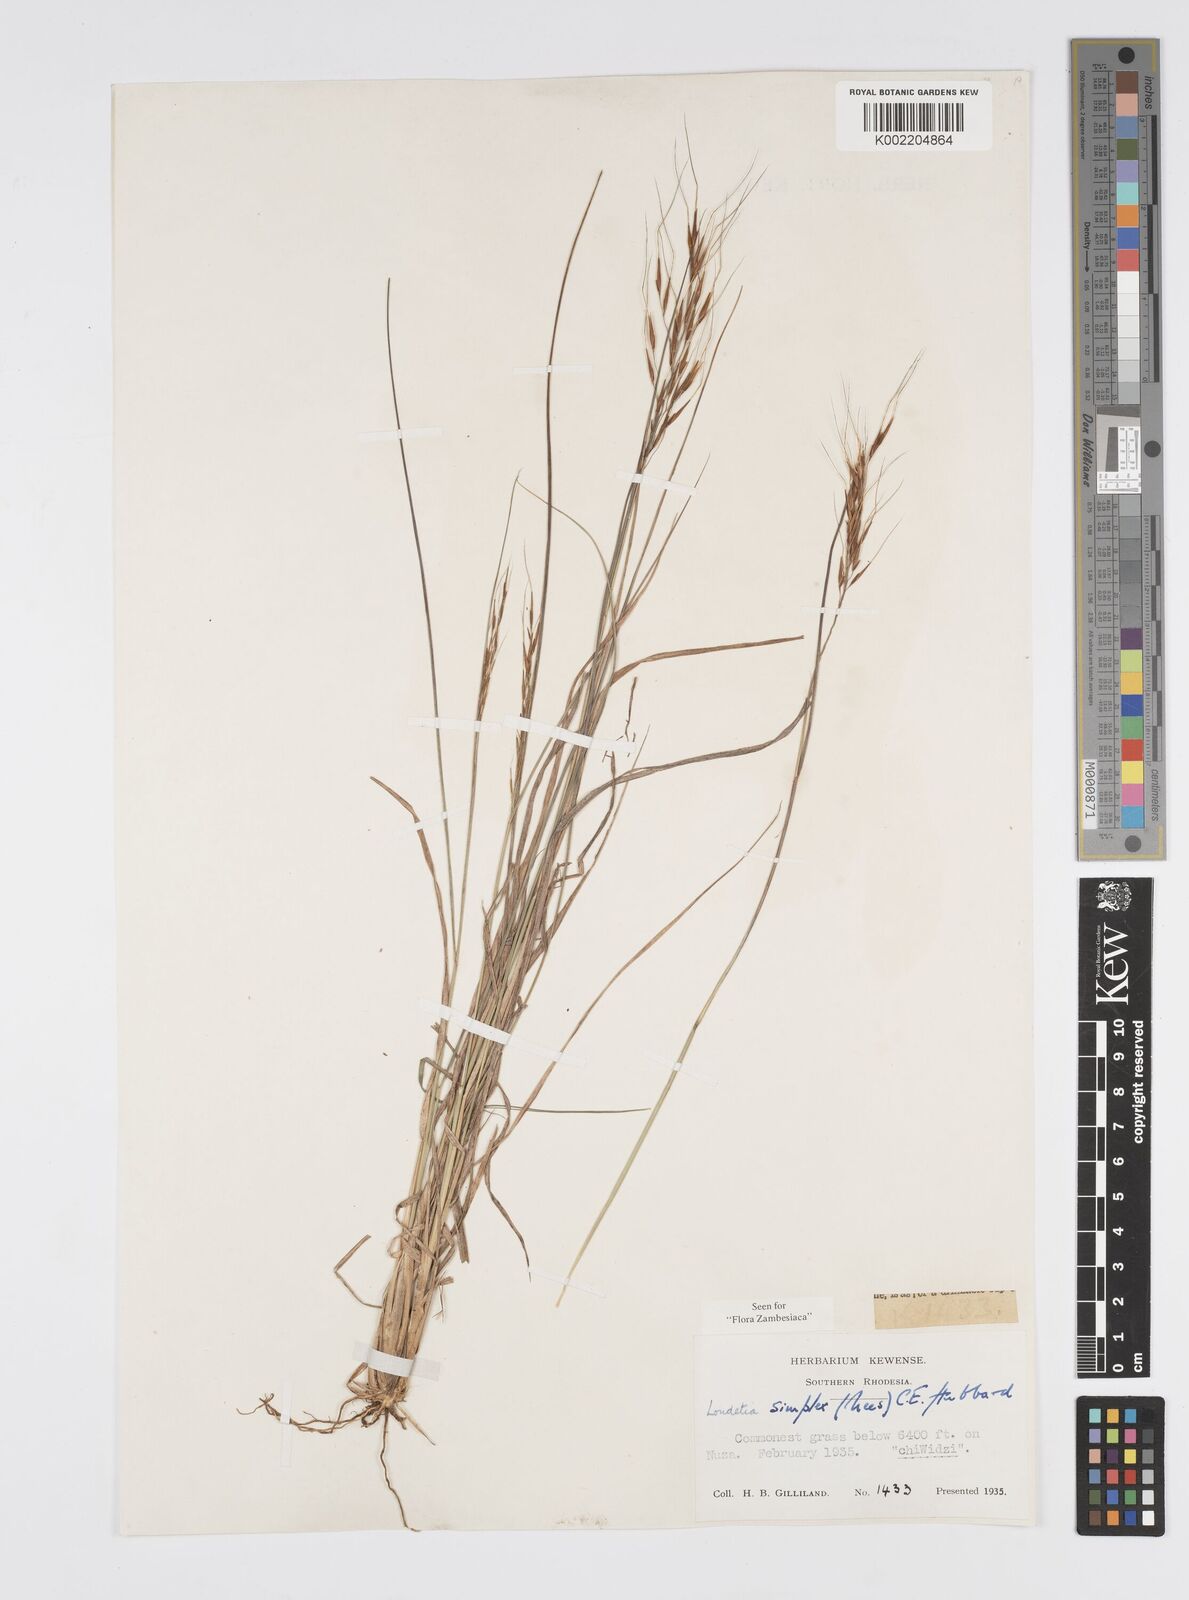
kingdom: Plantae
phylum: Tracheophyta
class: Liliopsida
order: Poales
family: Poaceae
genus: Loudetia
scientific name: Loudetia simplex
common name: Common russet grass
